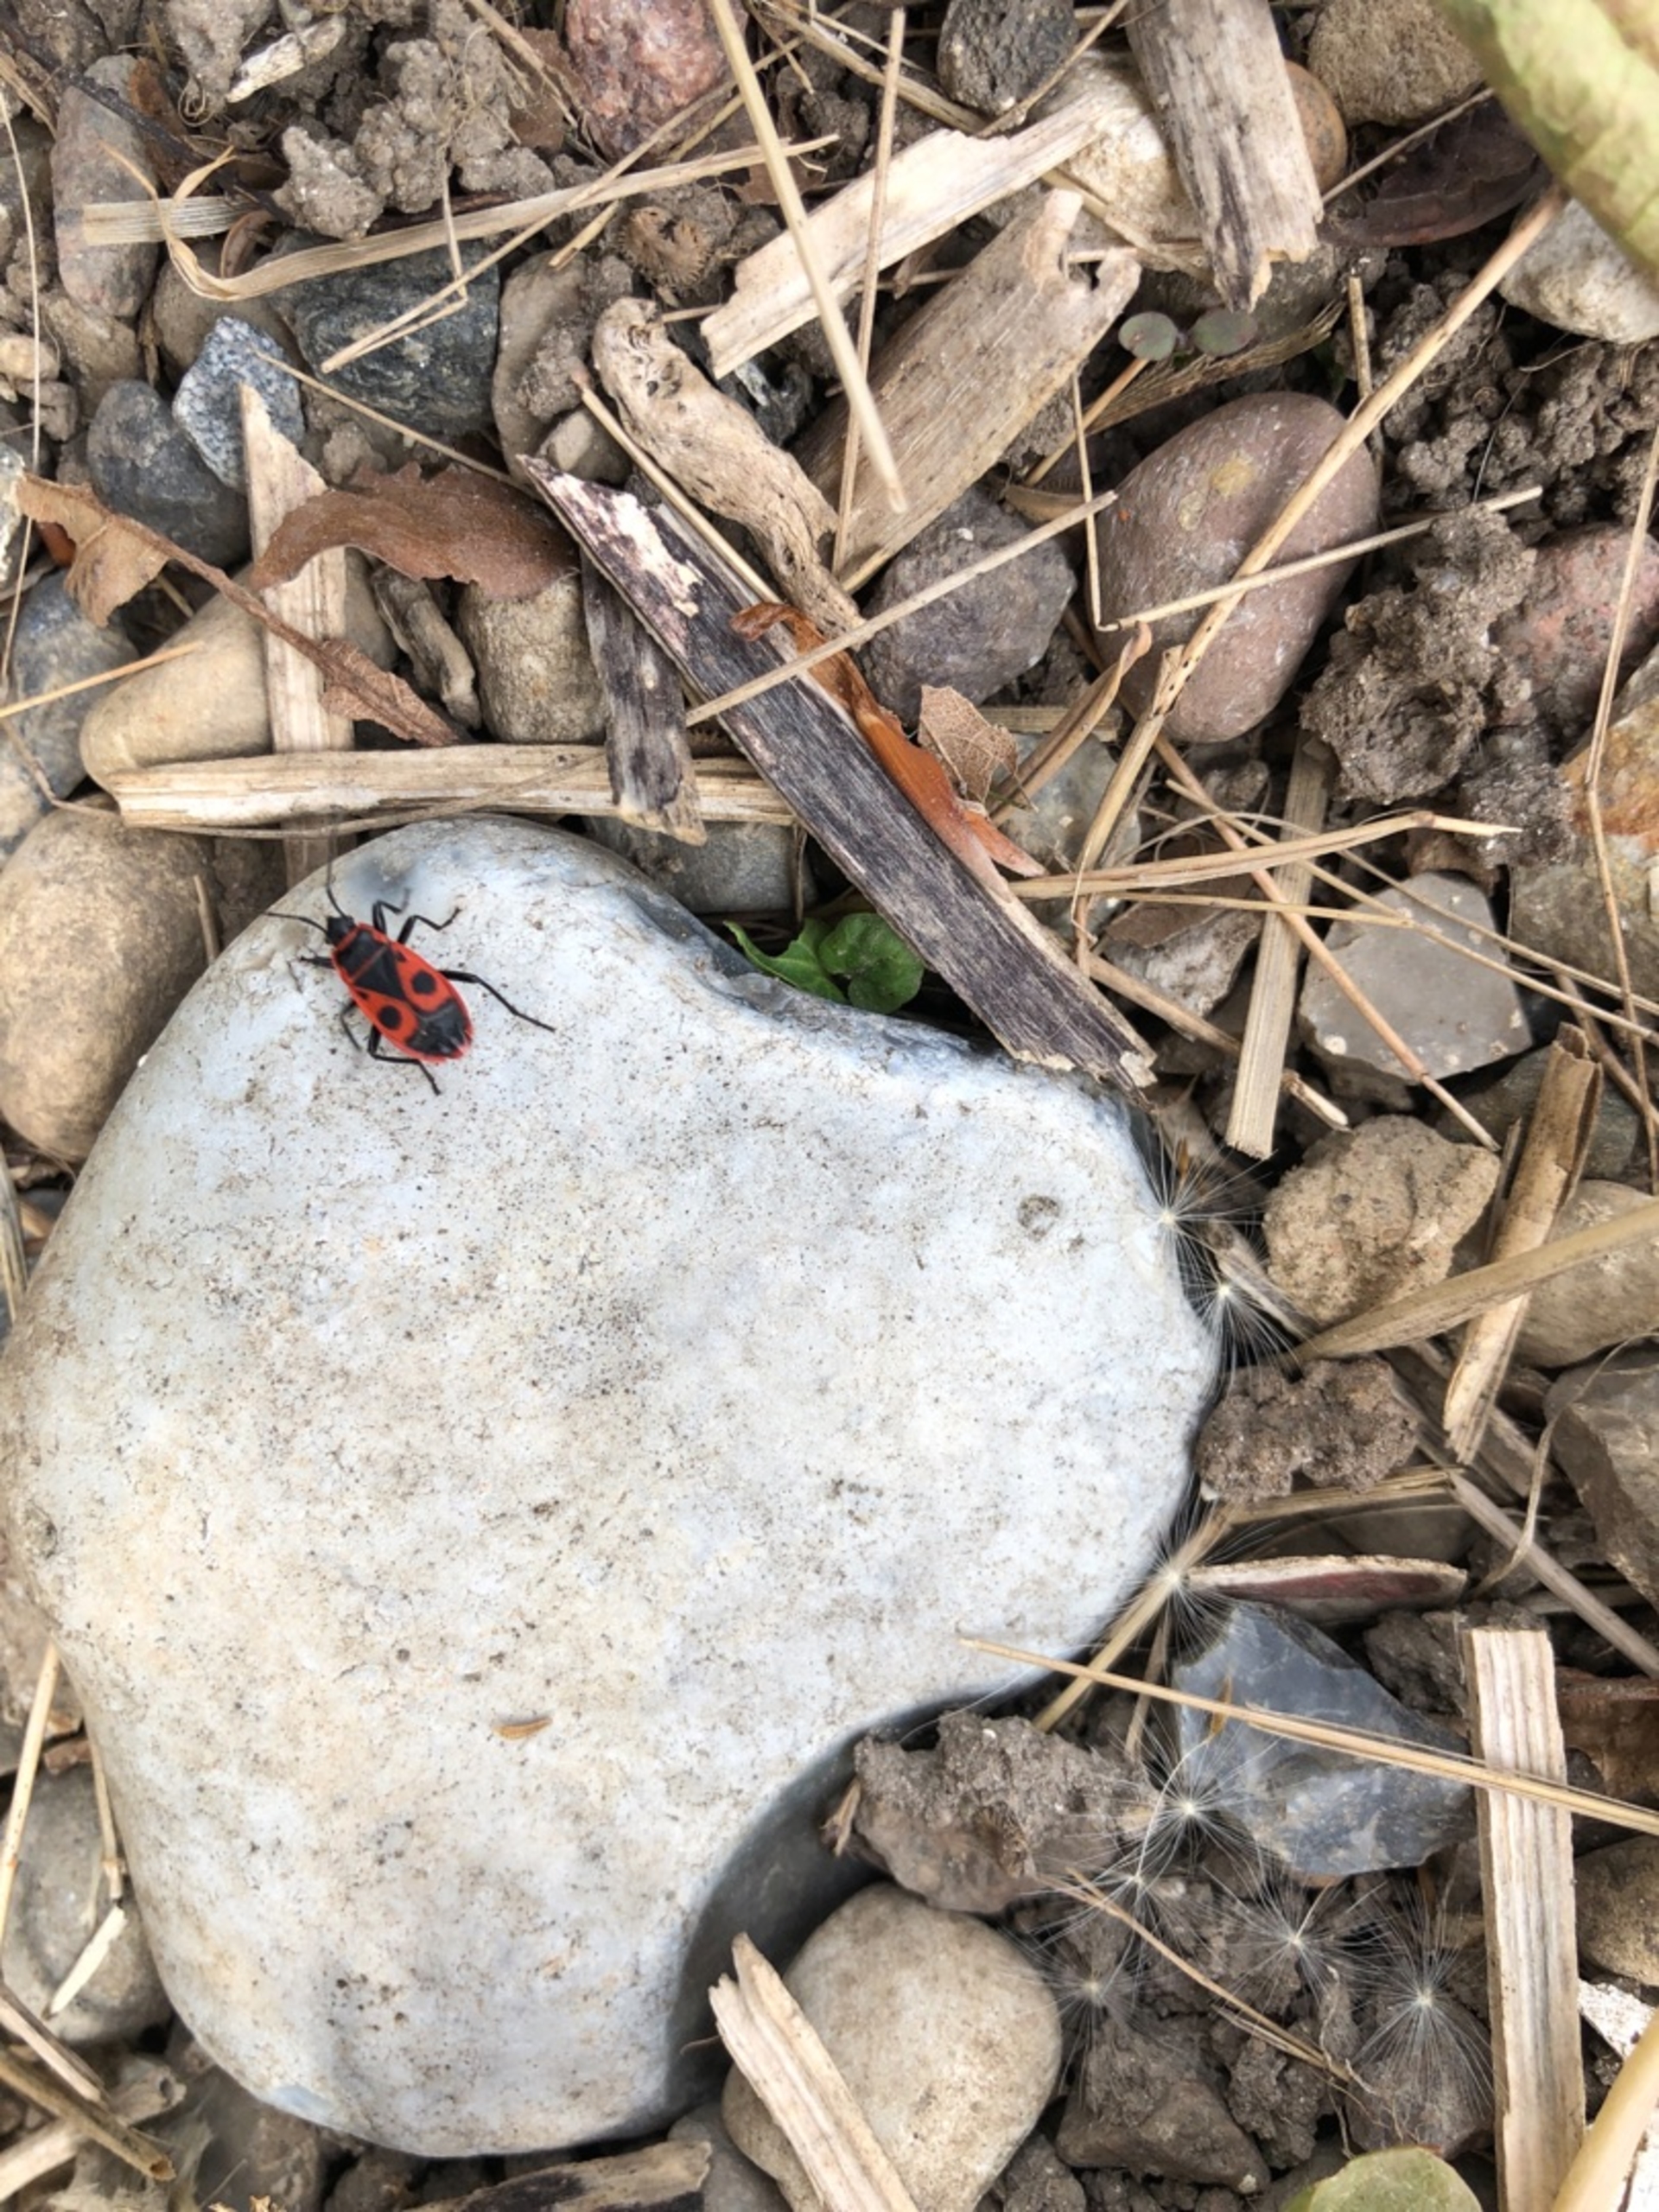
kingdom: Animalia
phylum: Arthropoda
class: Insecta
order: Hemiptera
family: Pyrrhocoridae
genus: Pyrrhocoris
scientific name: Pyrrhocoris apterus
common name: Ildtæge
